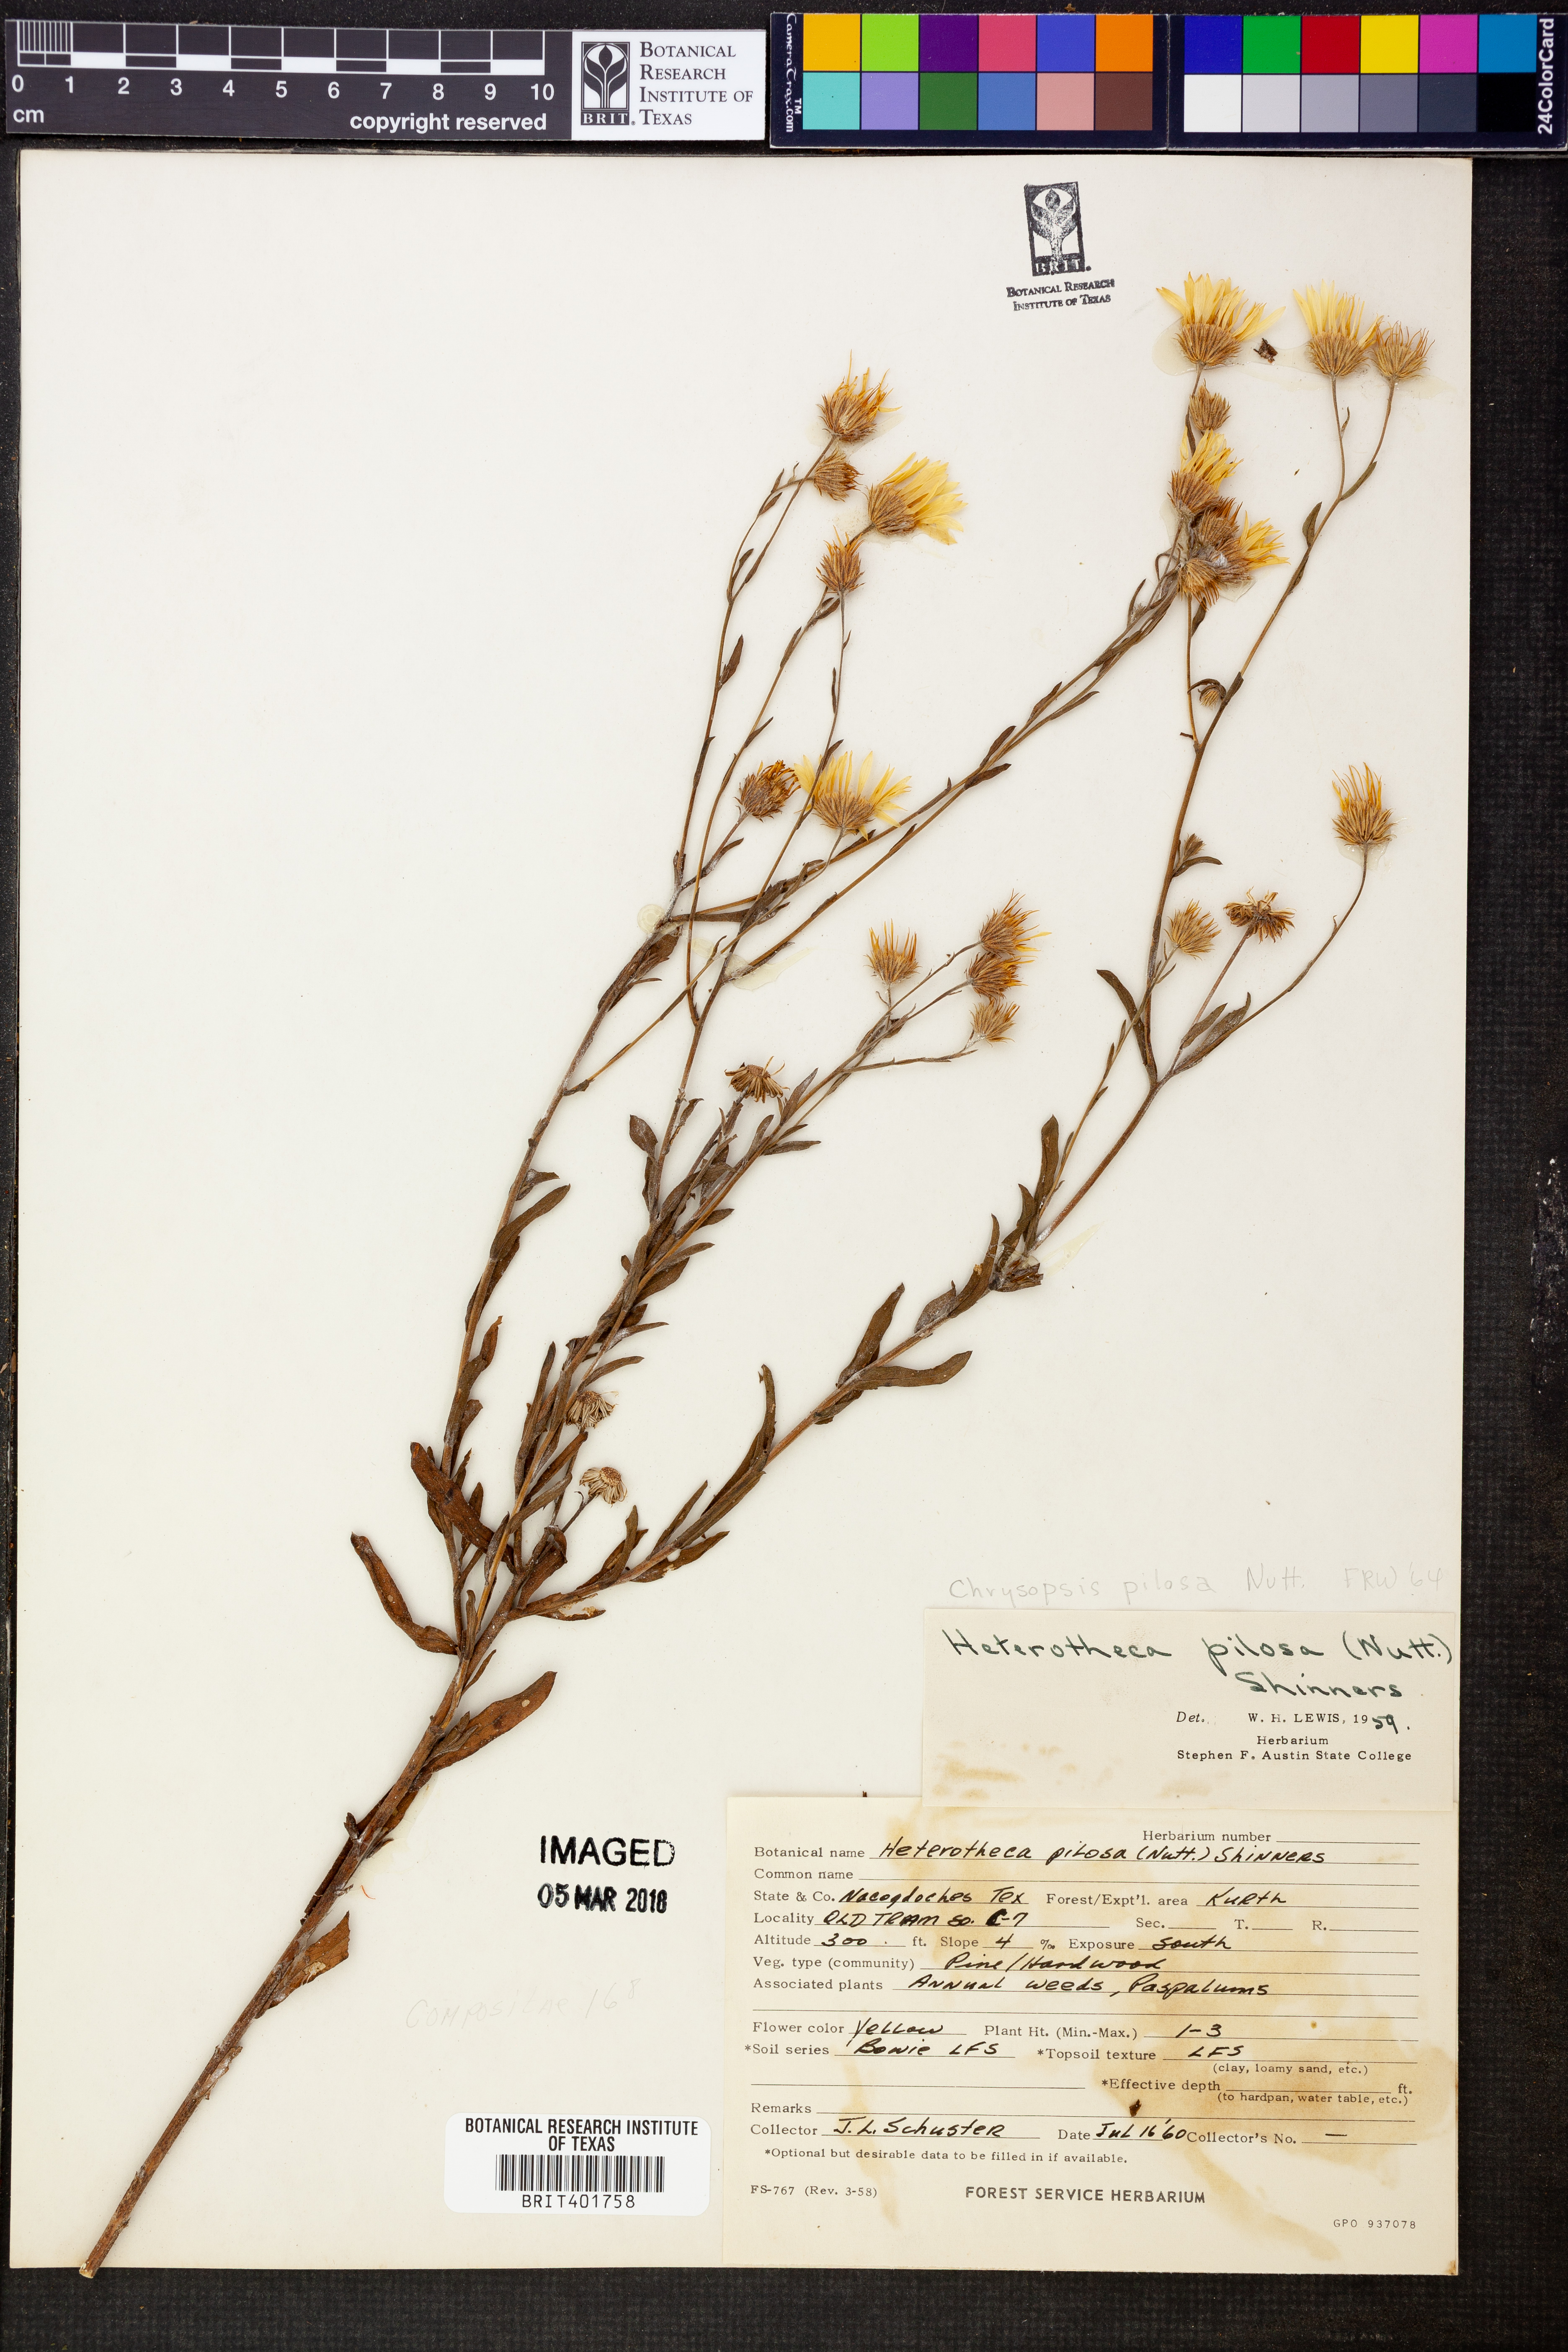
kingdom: Plantae
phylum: Tracheophyta
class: Magnoliopsida
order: Asterales
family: Asteraceae
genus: Bradburia
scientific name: Bradburia pilosa
